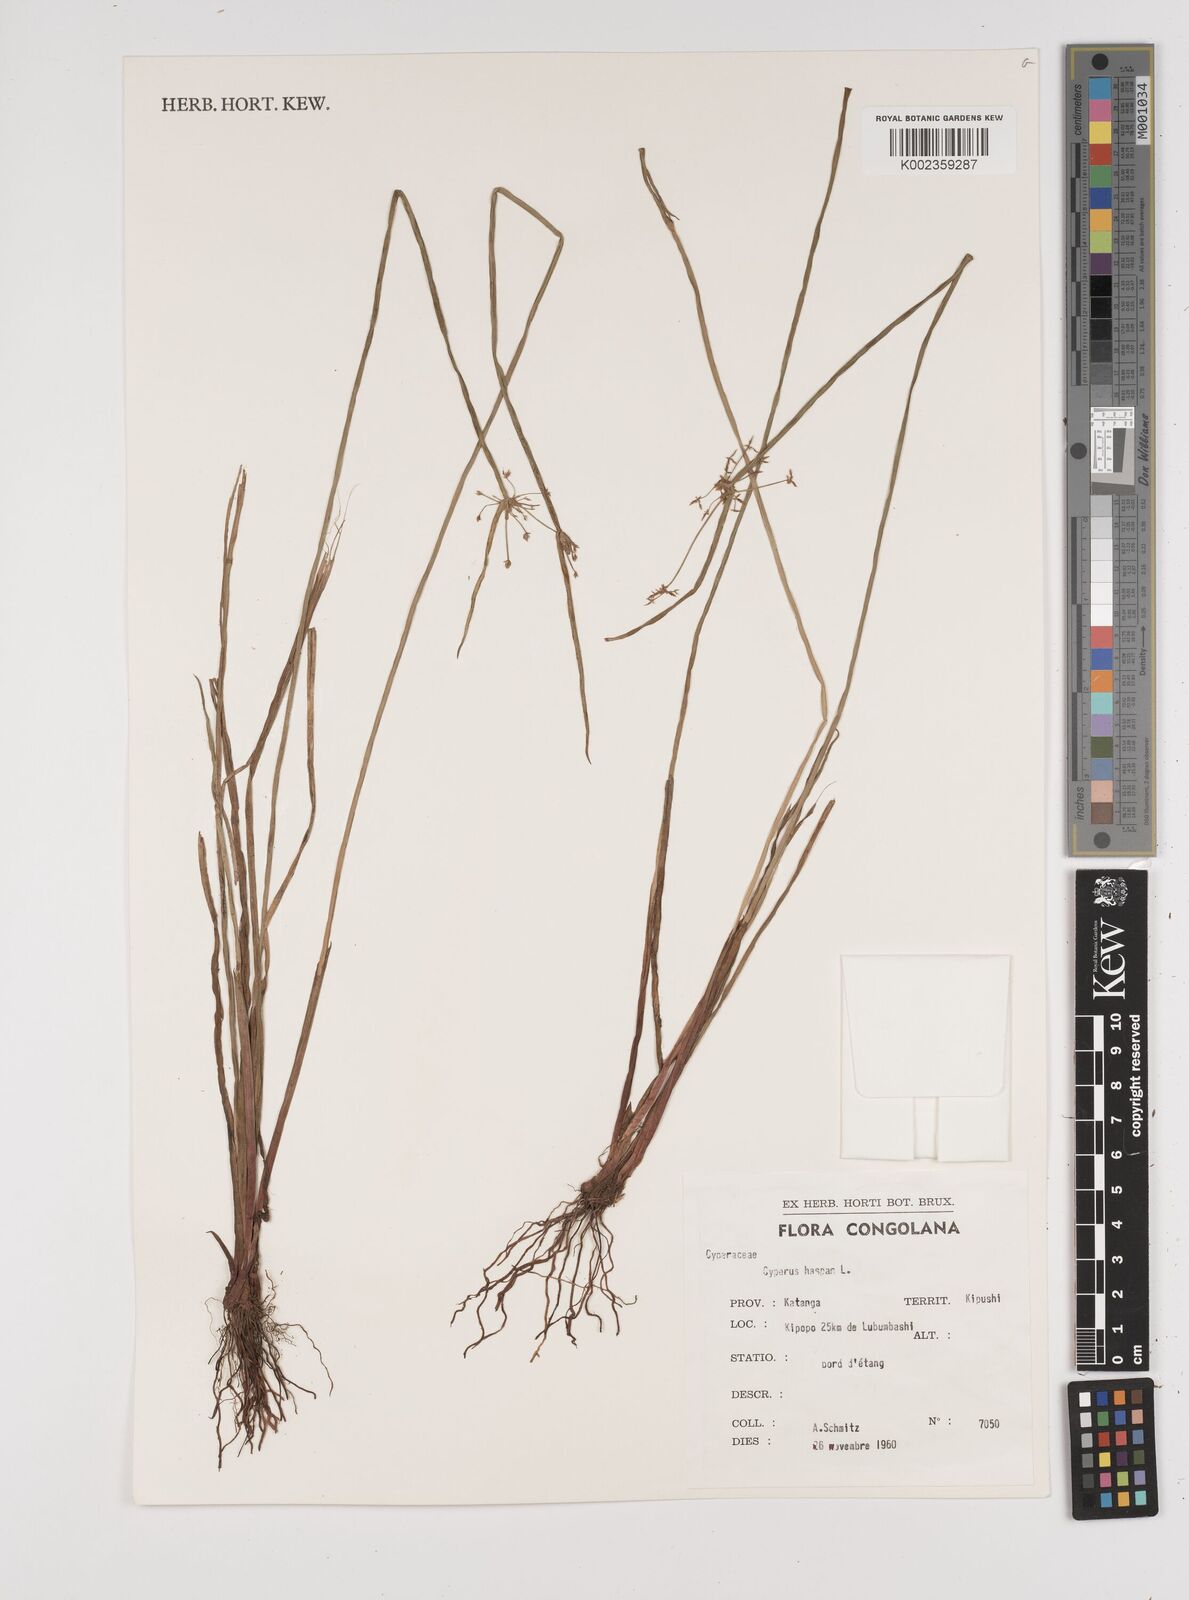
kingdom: Plantae
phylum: Tracheophyta
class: Liliopsida
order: Poales
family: Cyperaceae
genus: Cyperus
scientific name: Cyperus haspan
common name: Haspan flatsedge
